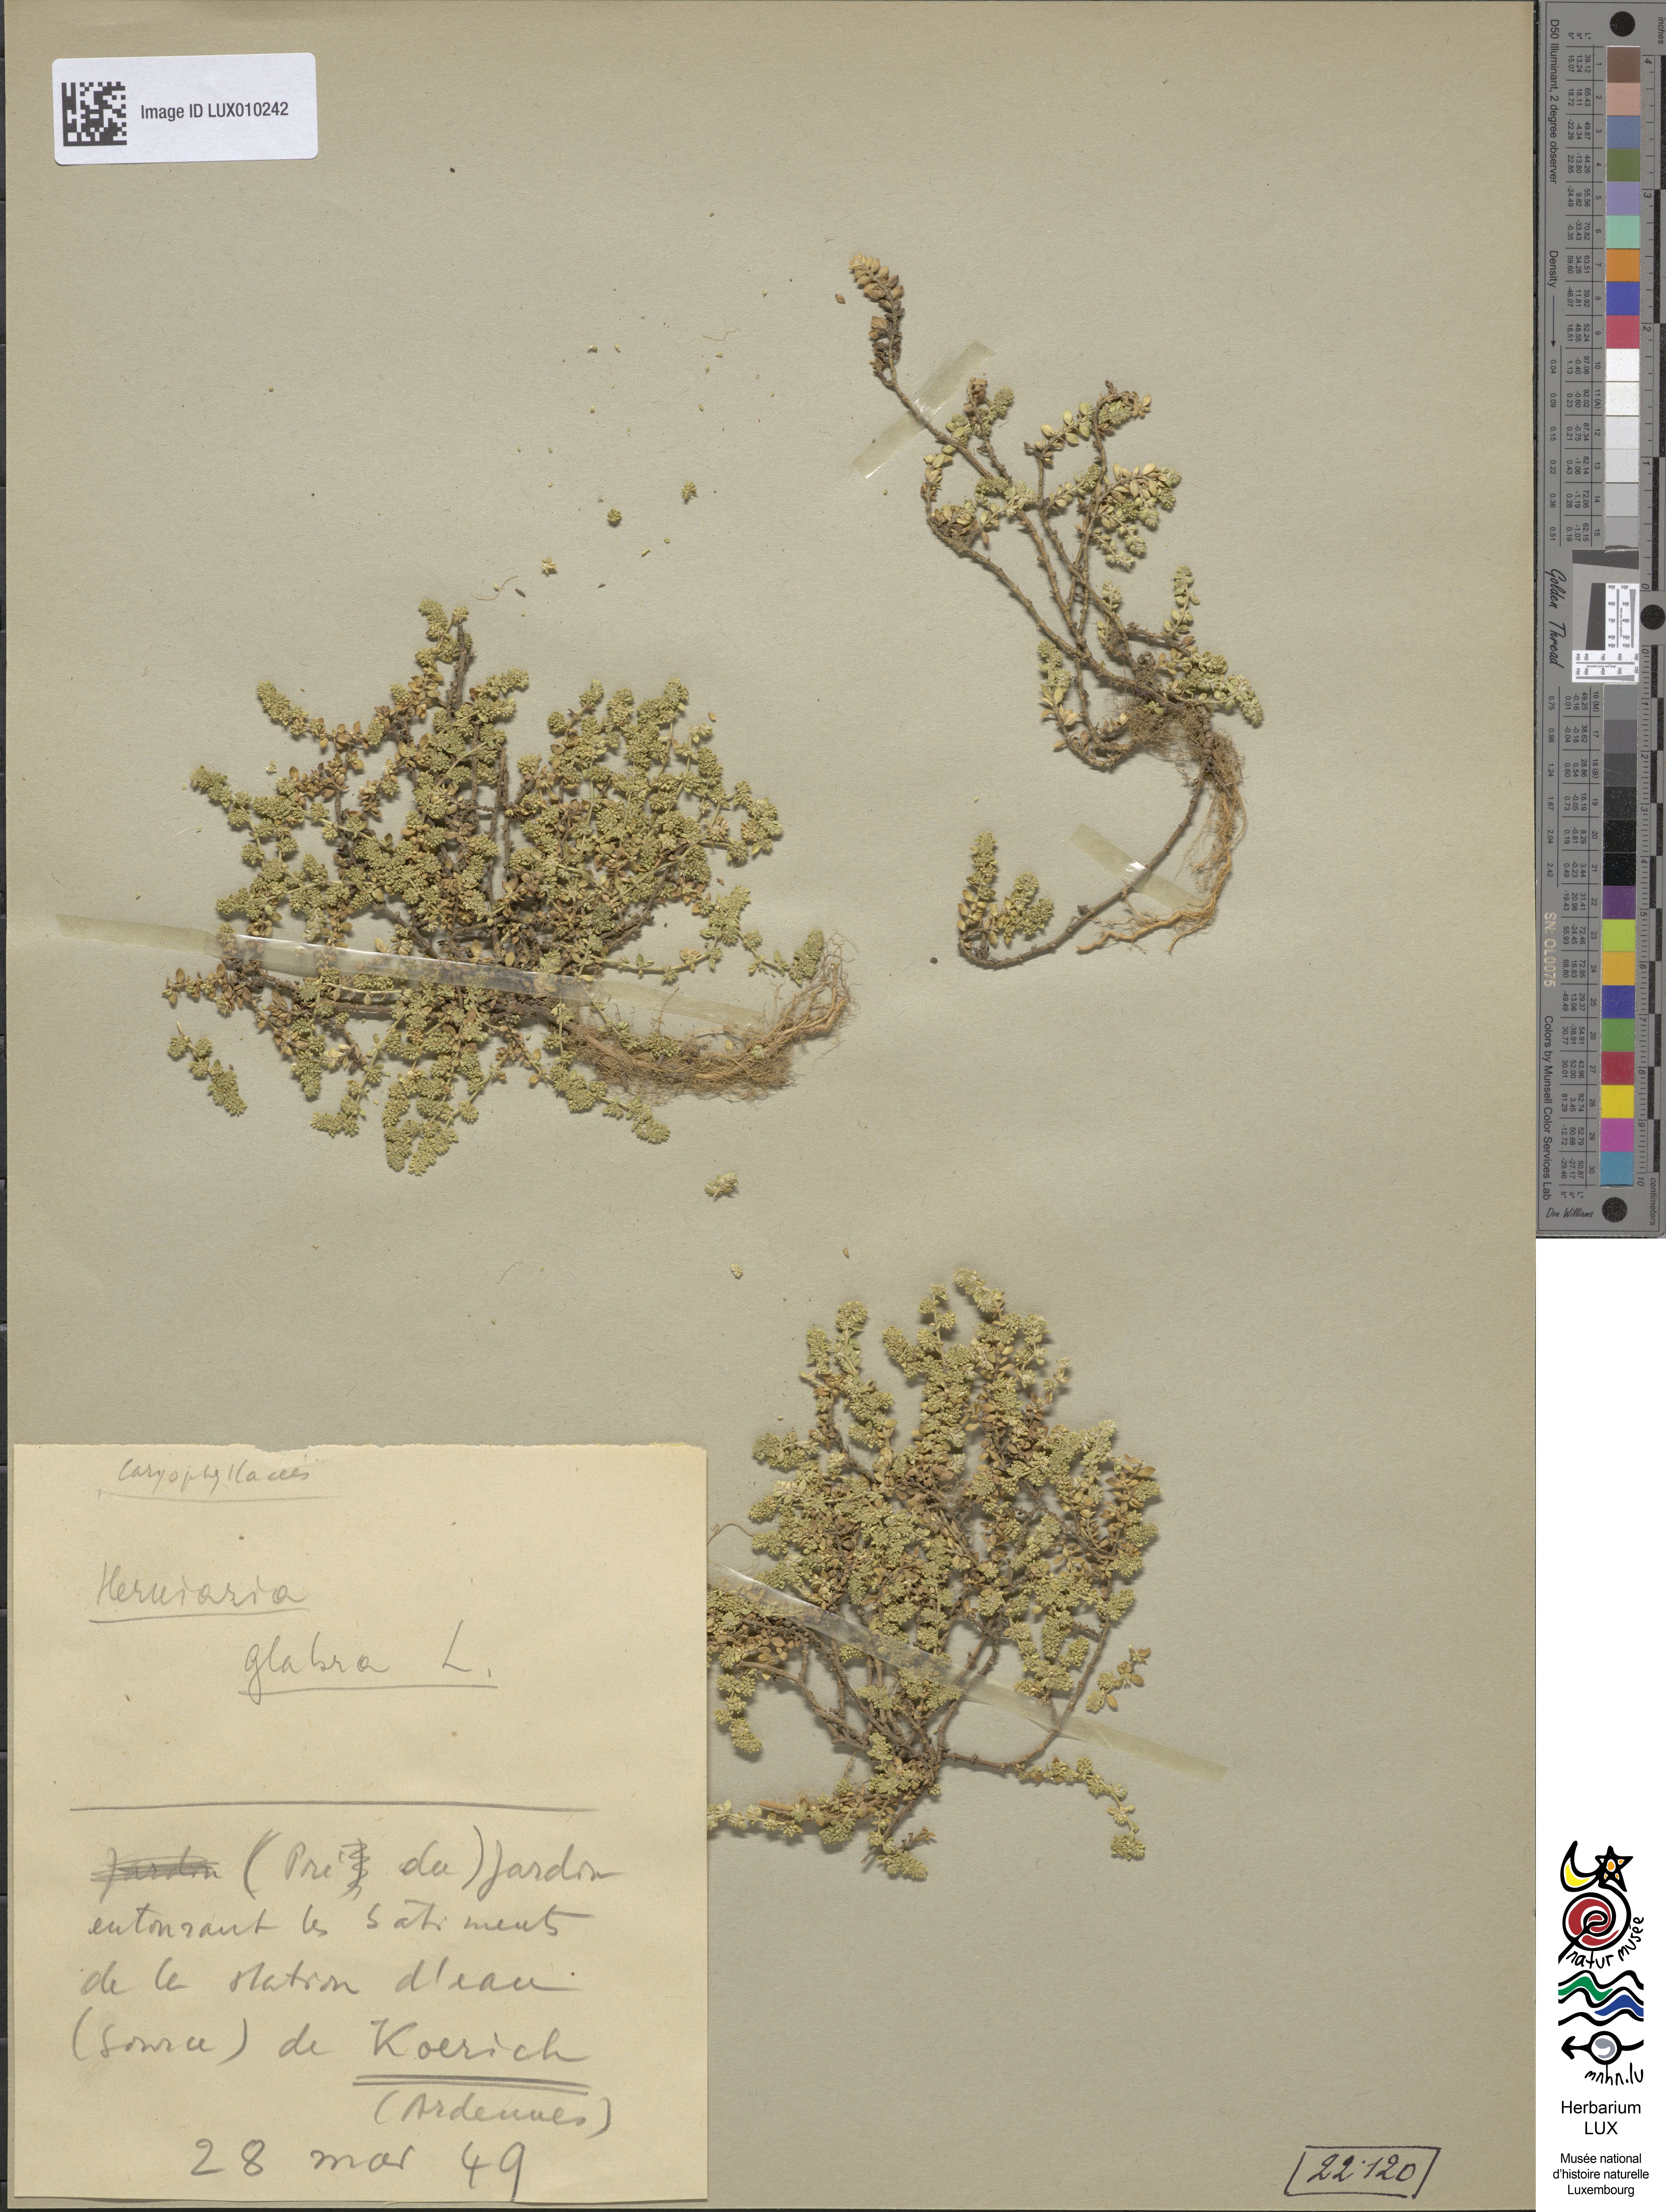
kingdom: Plantae
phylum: Tracheophyta
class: Magnoliopsida
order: Caryophyllales
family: Caryophyllaceae
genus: Herniaria
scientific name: Herniaria glabra
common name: Smooth rupturewort
